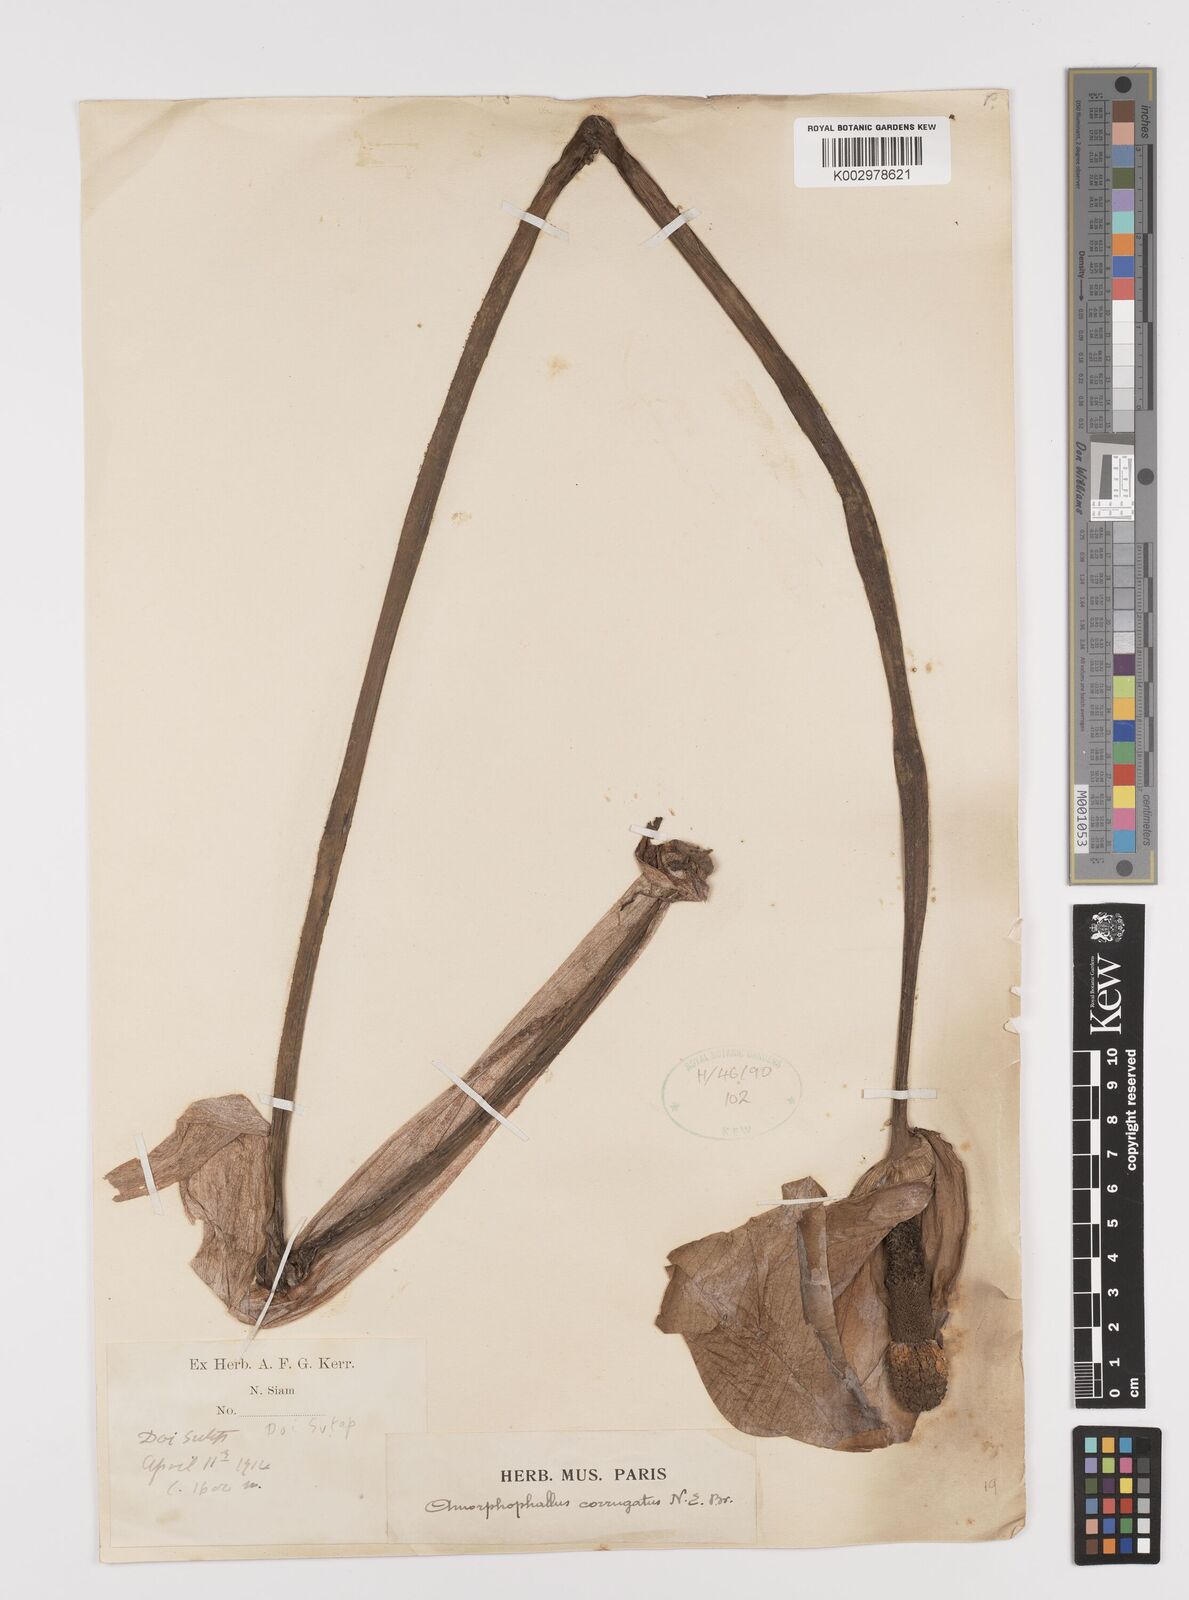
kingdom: Plantae
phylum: Tracheophyta
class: Liliopsida
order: Alismatales
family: Araceae
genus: Amorphophallus
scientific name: Amorphophallus corrugatus
